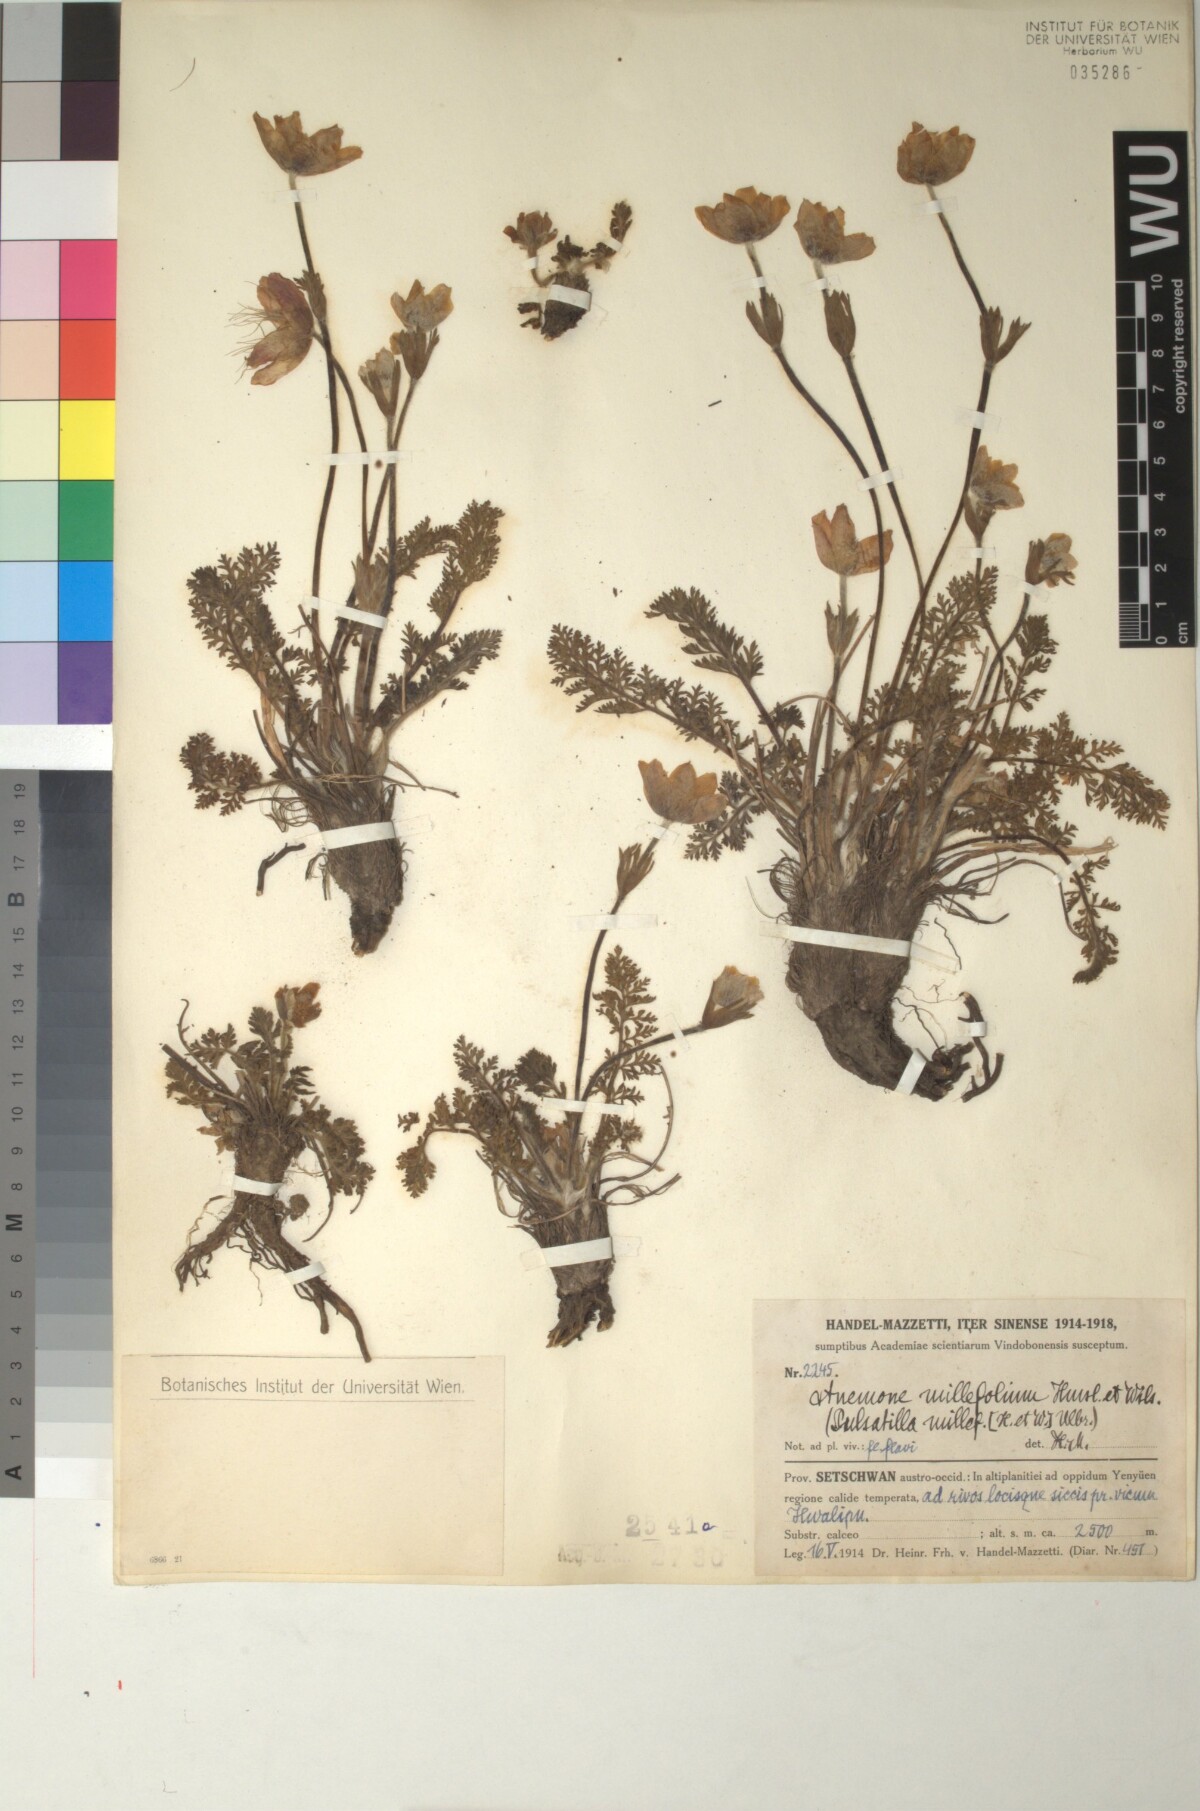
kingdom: Plantae
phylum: Tracheophyta
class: Magnoliopsida
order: Ranunculales
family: Ranunculaceae
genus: Pulsatilla
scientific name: Pulsatilla millefolium
